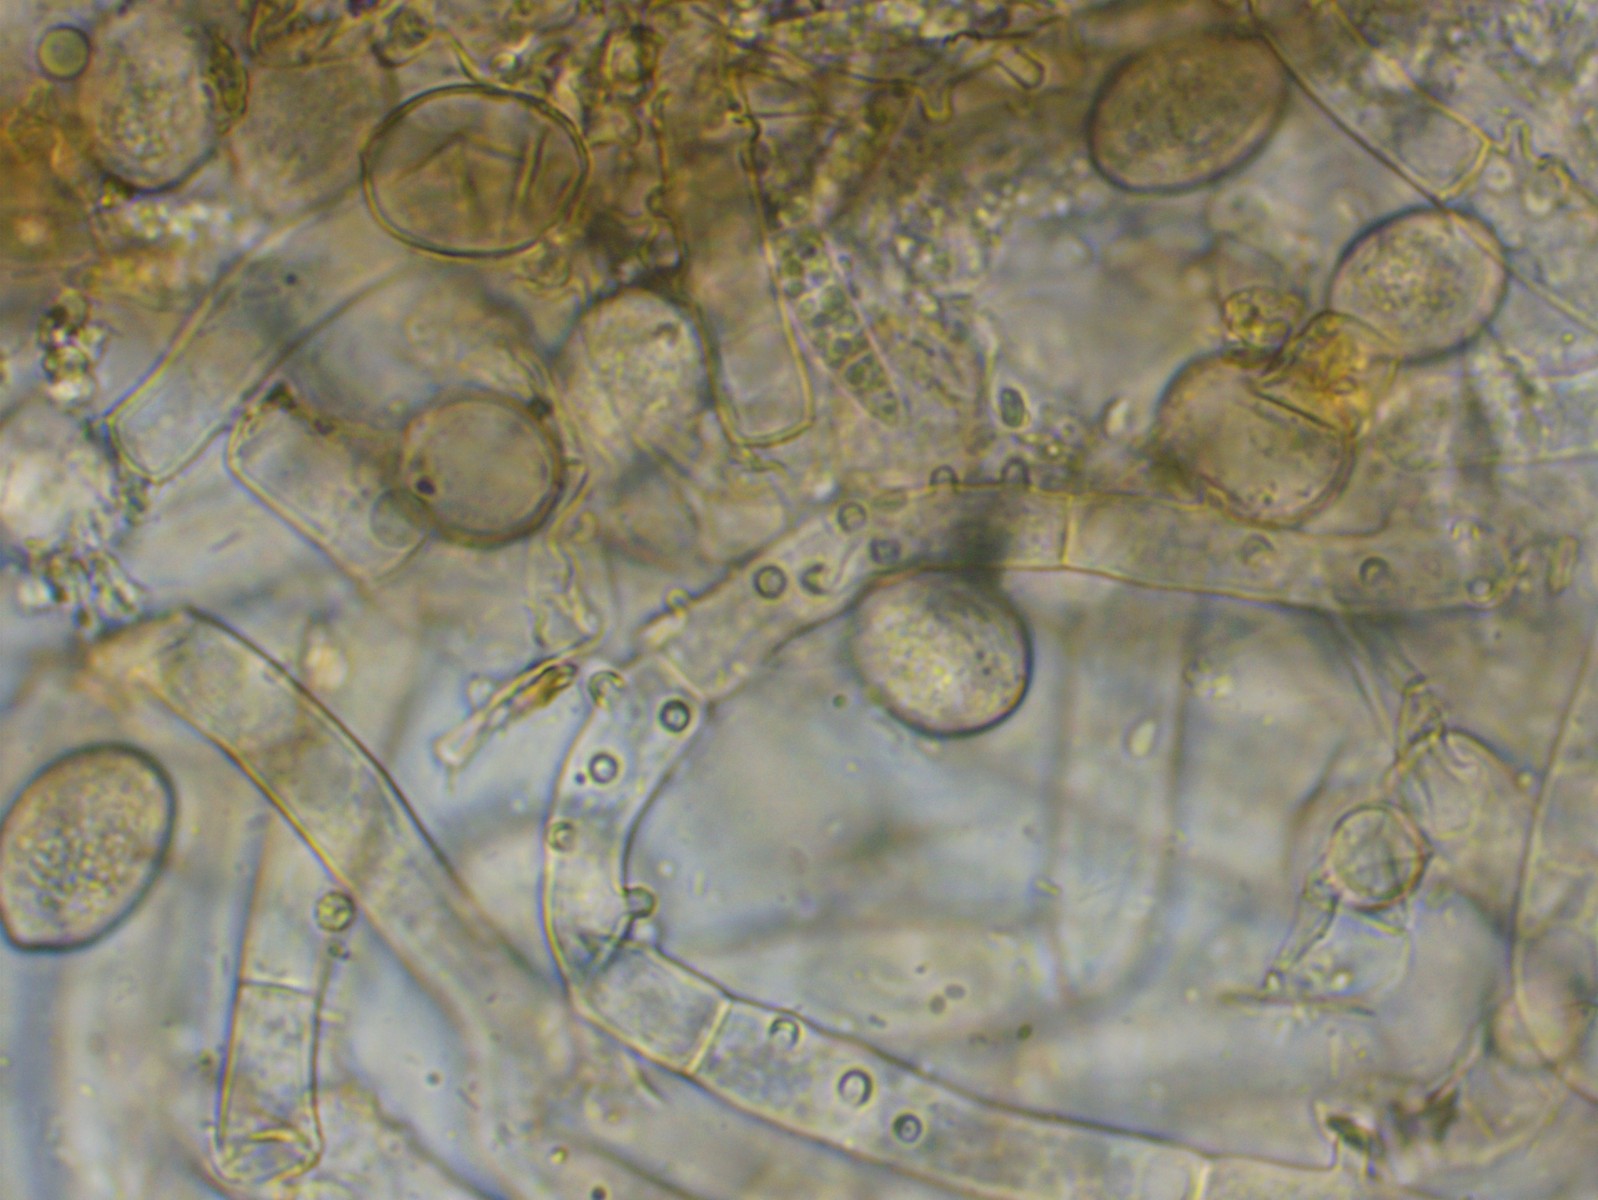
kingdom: Fungi
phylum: Basidiomycota
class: Agaricomycetes
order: Cantharellales
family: Botryobasidiaceae
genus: Botryobasidium
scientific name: Botryobasidium conspersum
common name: olivengrå spindhinde
